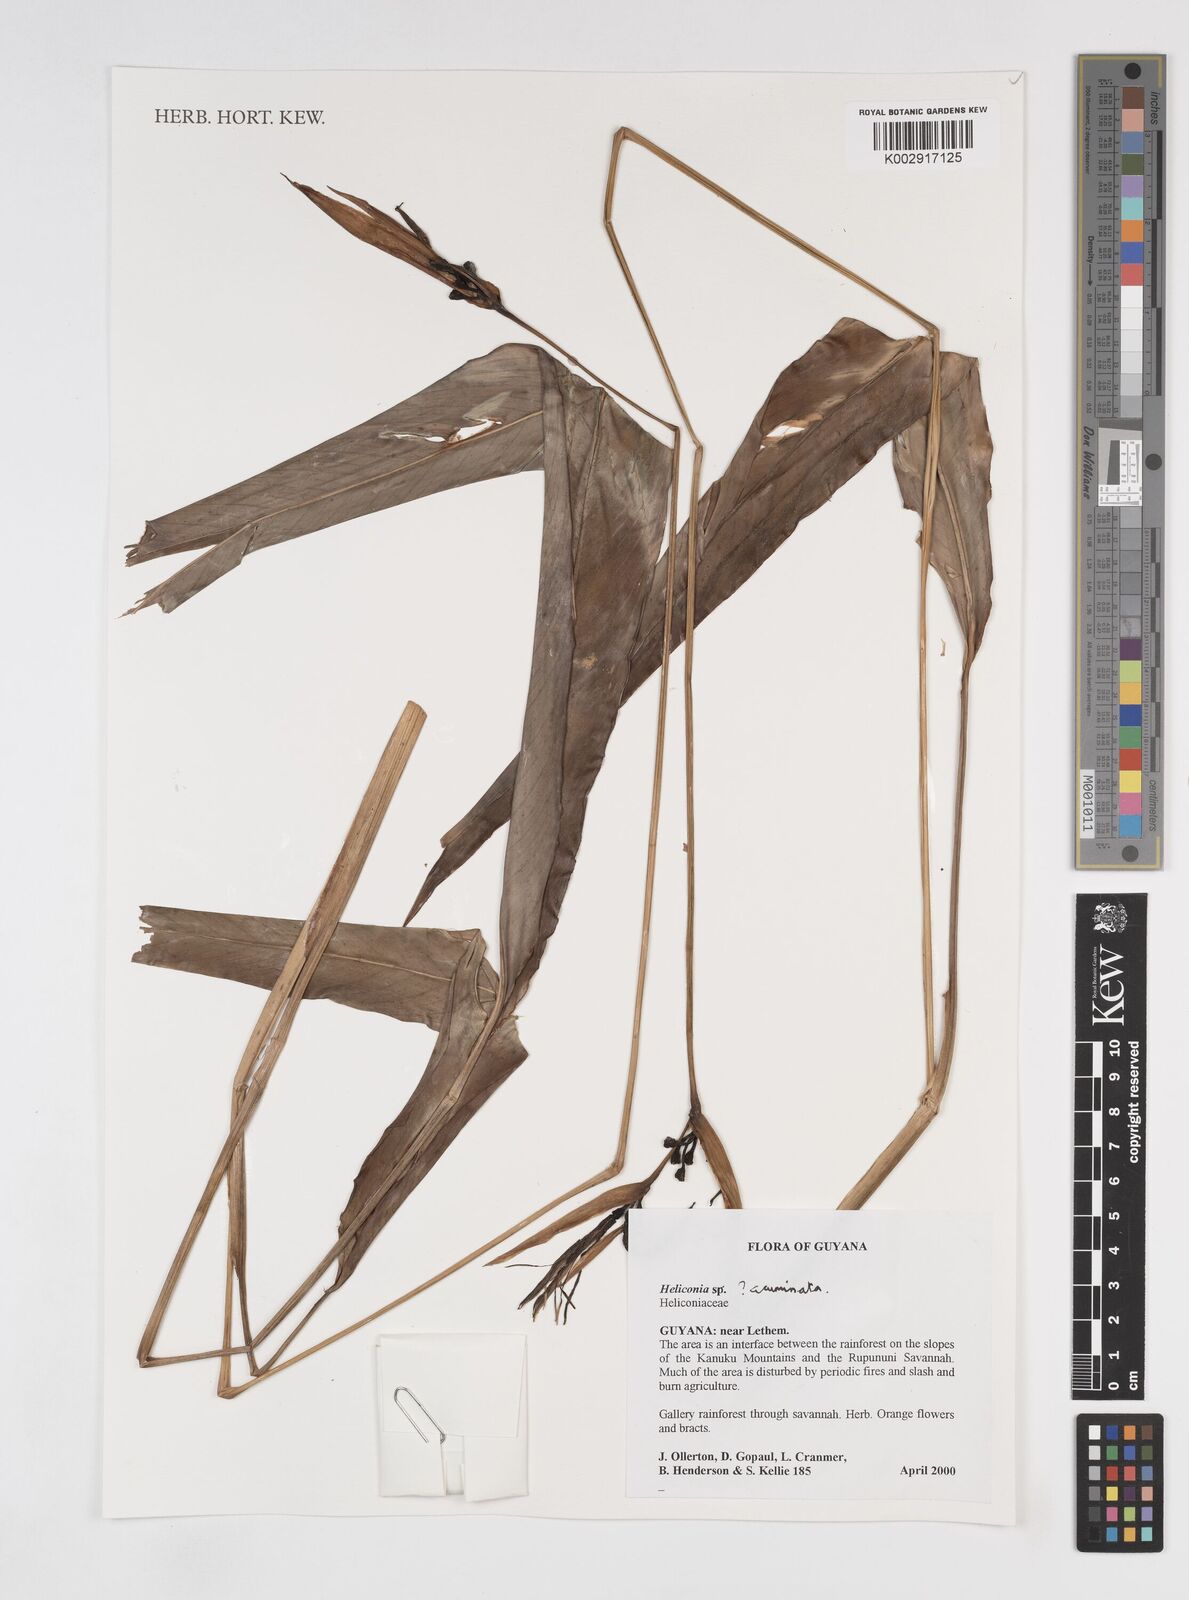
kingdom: Plantae
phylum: Tracheophyta
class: Liliopsida
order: Zingiberales
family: Heliconiaceae
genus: Heliconia
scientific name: Heliconia acuminata
